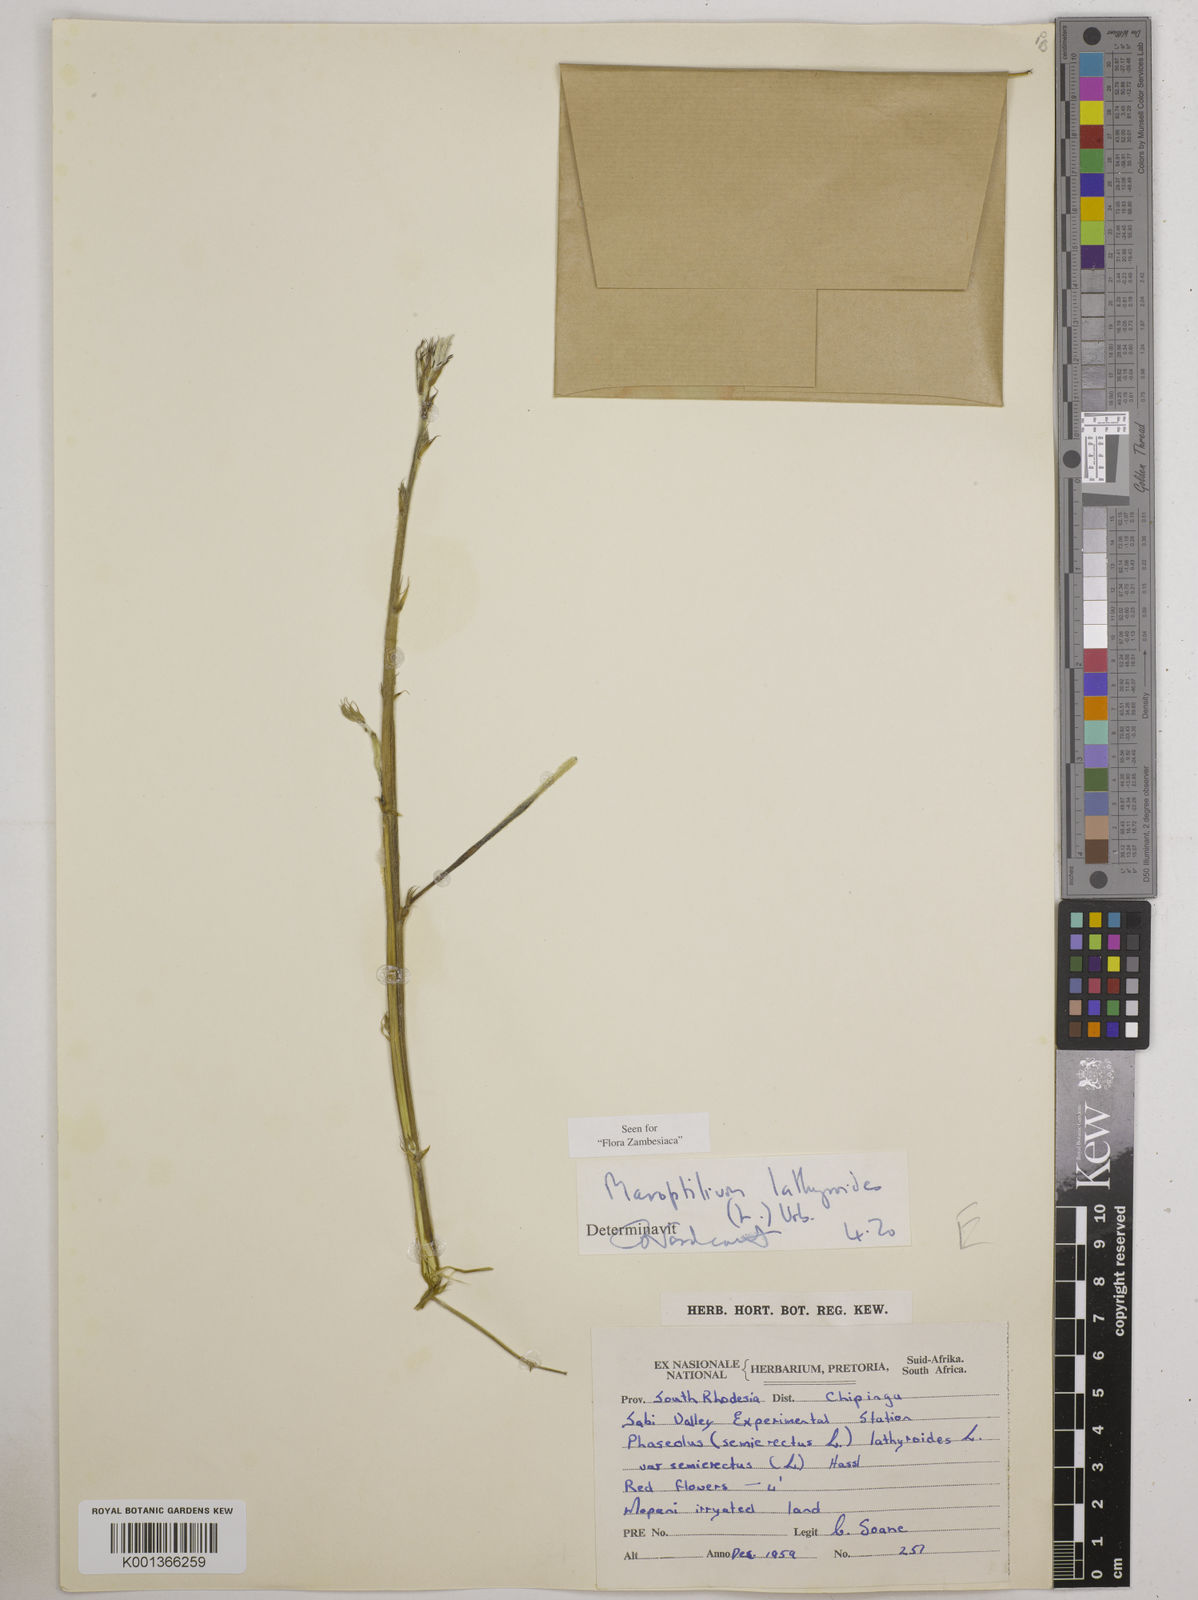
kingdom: Plantae
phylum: Tracheophyta
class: Magnoliopsida
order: Fabales
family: Fabaceae
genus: Macroptilium
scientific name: Macroptilium lathyroides
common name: Wild bushbean
